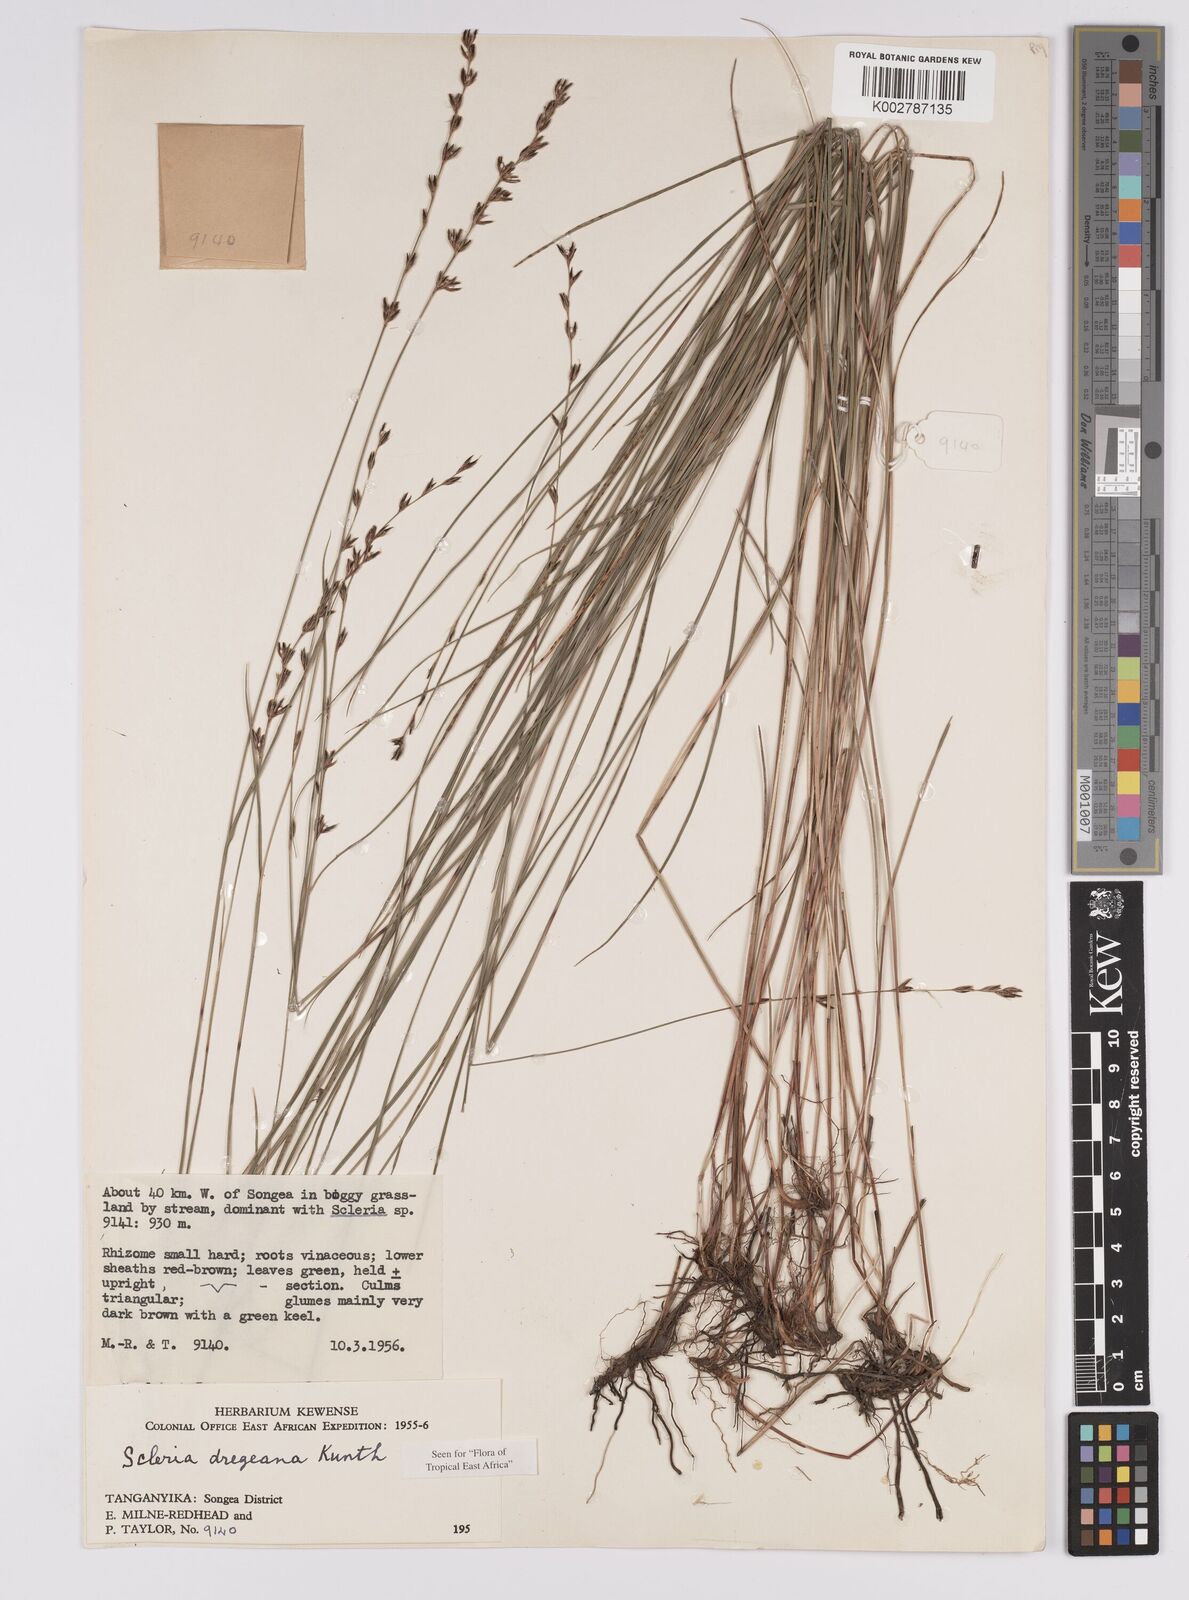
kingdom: Plantae
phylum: Tracheophyta
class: Liliopsida
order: Poales
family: Cyperaceae
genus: Scleria
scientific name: Scleria dregeana
